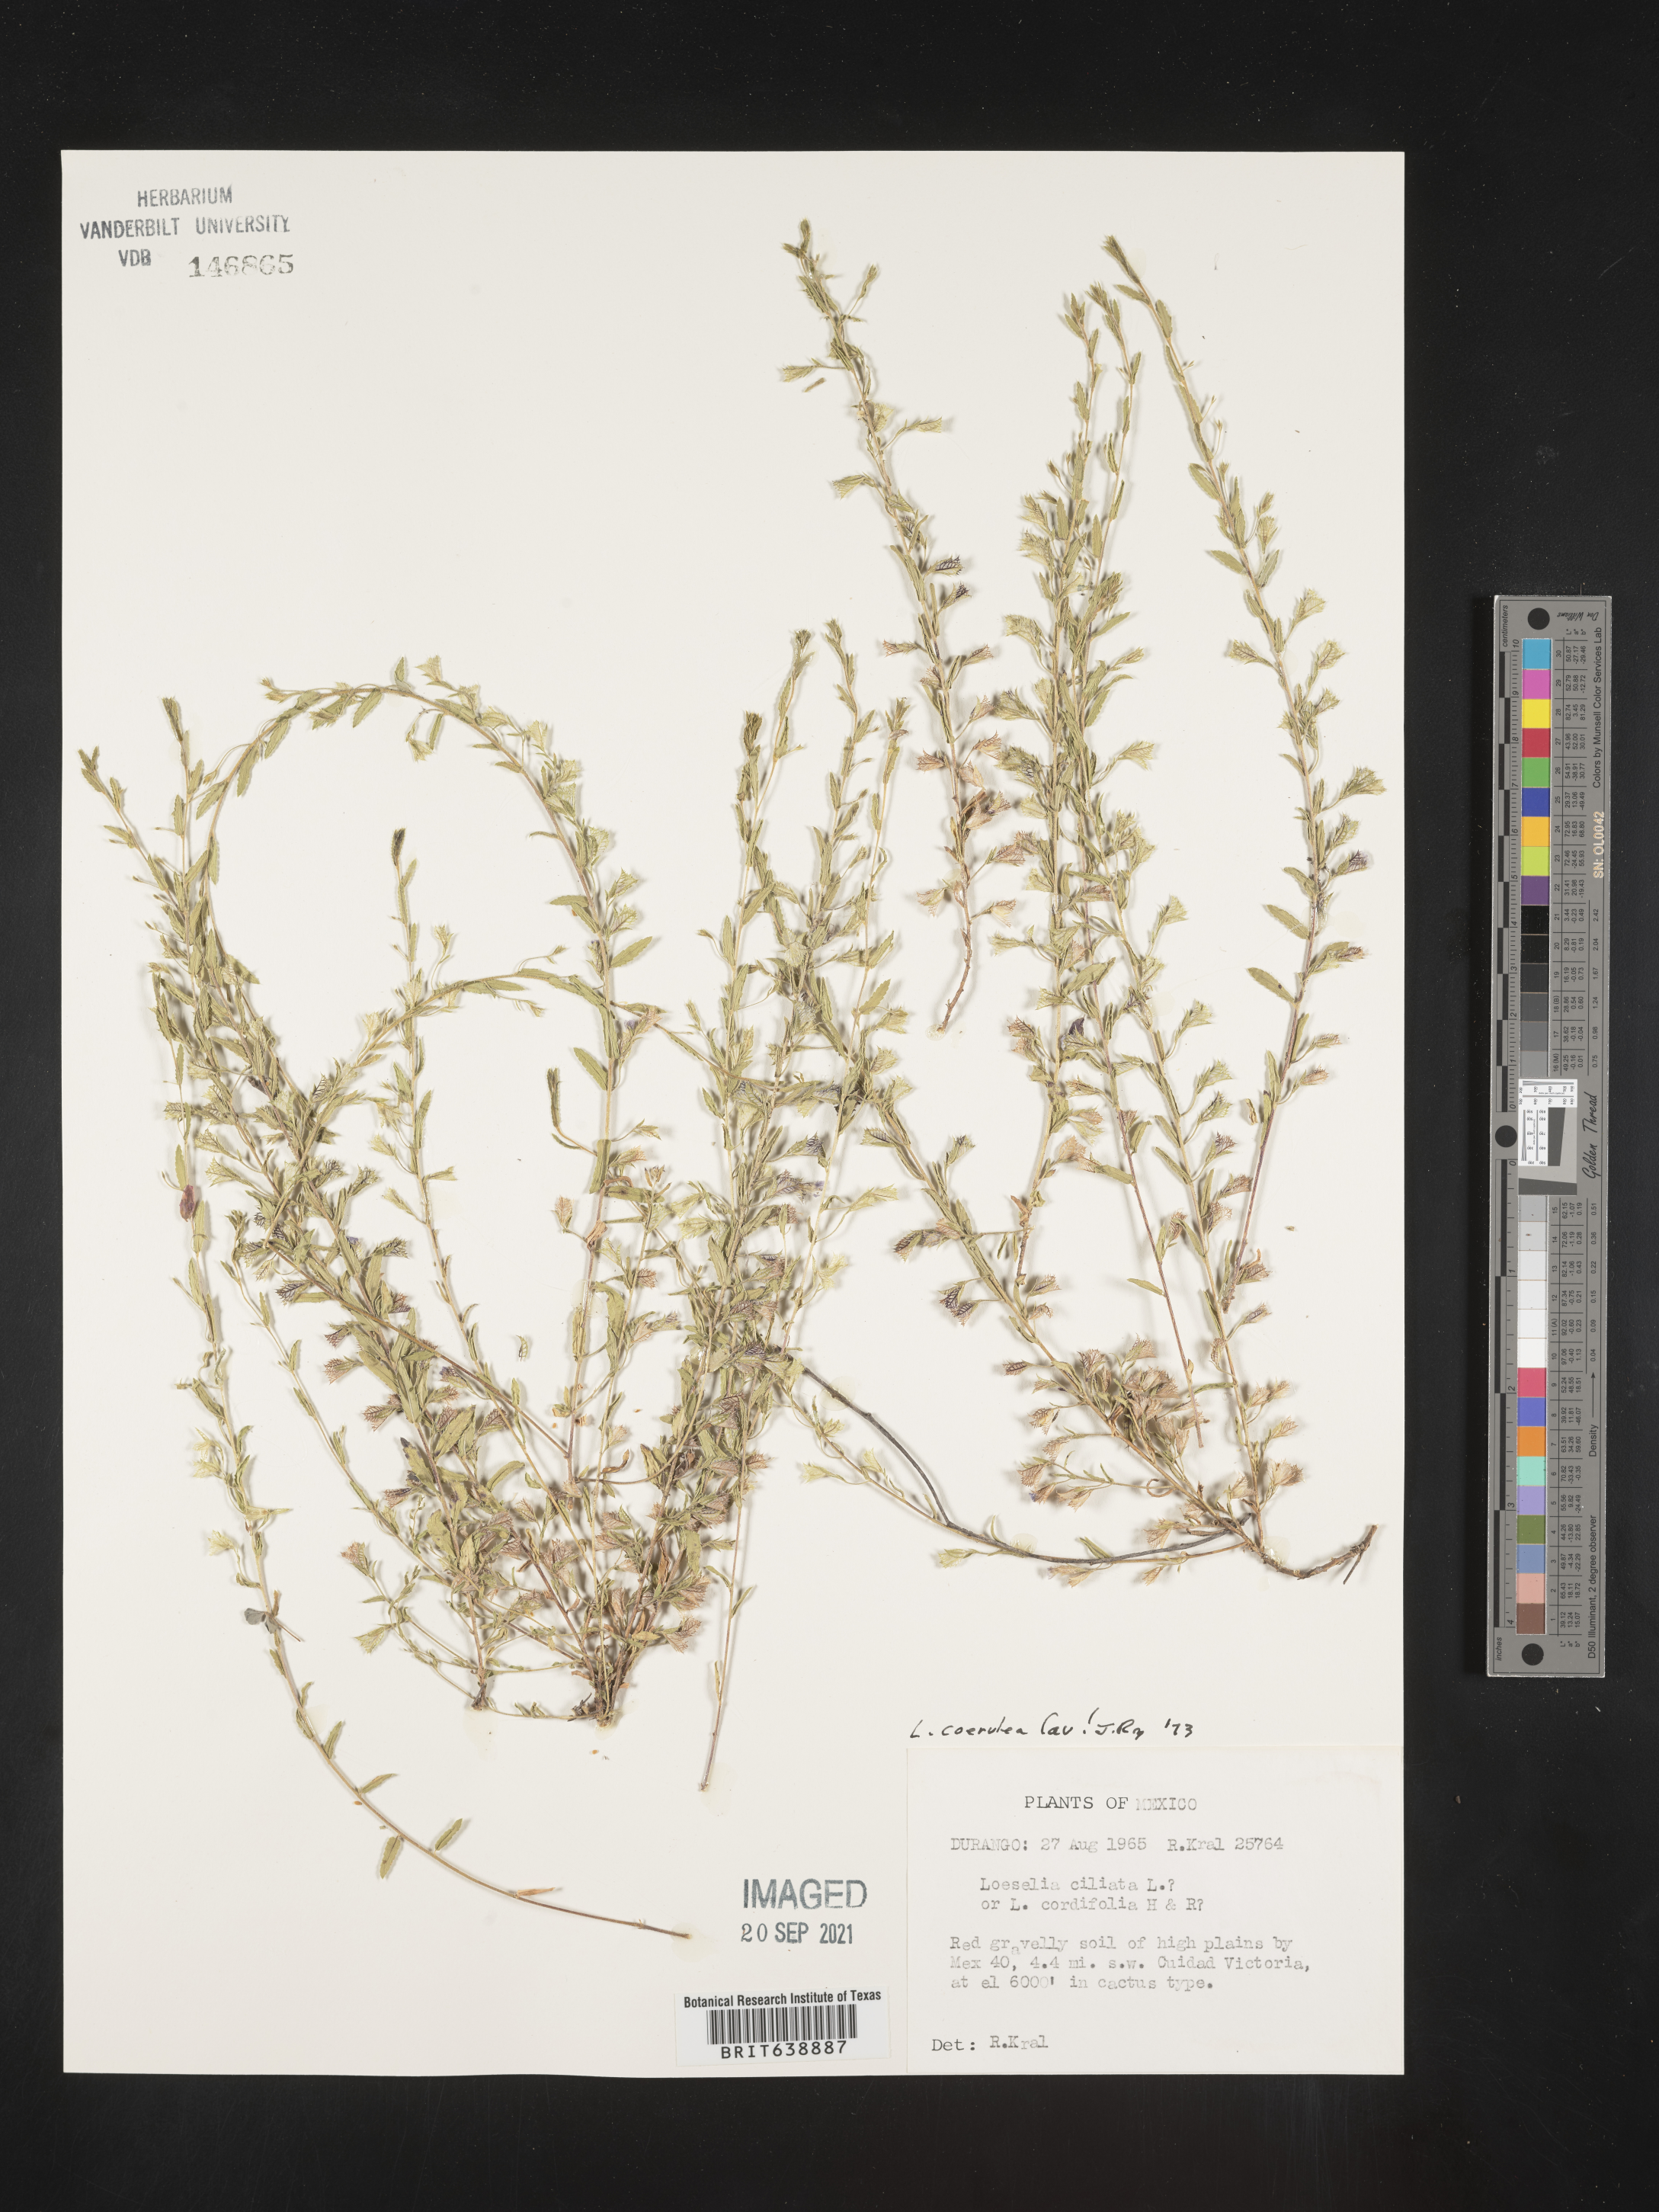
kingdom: Plantae
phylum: Tracheophyta
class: Magnoliopsida
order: Ericales
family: Polemoniaceae
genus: Loeselia
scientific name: Loeselia
